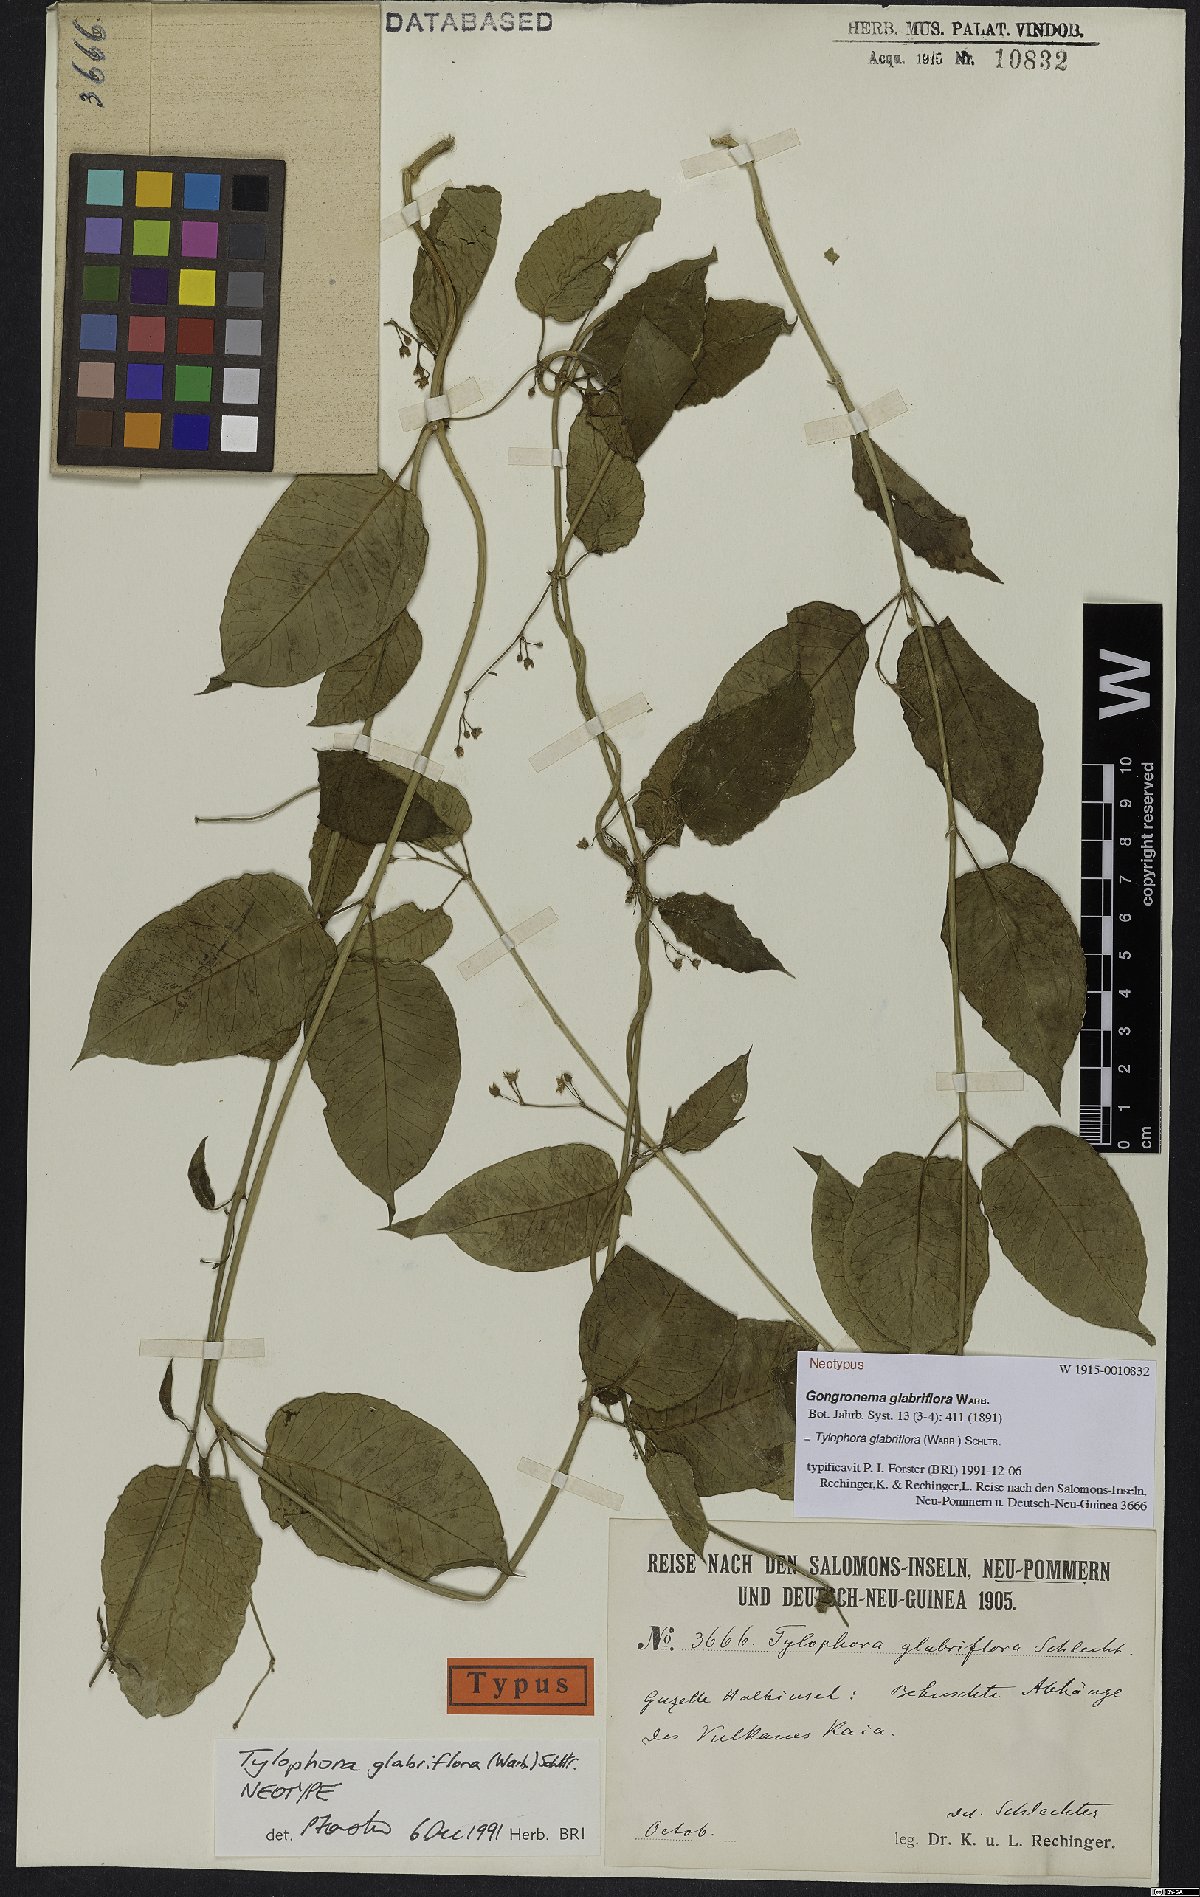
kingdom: Plantae
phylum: Tracheophyta
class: Magnoliopsida
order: Gentianales
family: Apocynaceae
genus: Vincetoxicum
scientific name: Vincetoxicum glabriflorum
